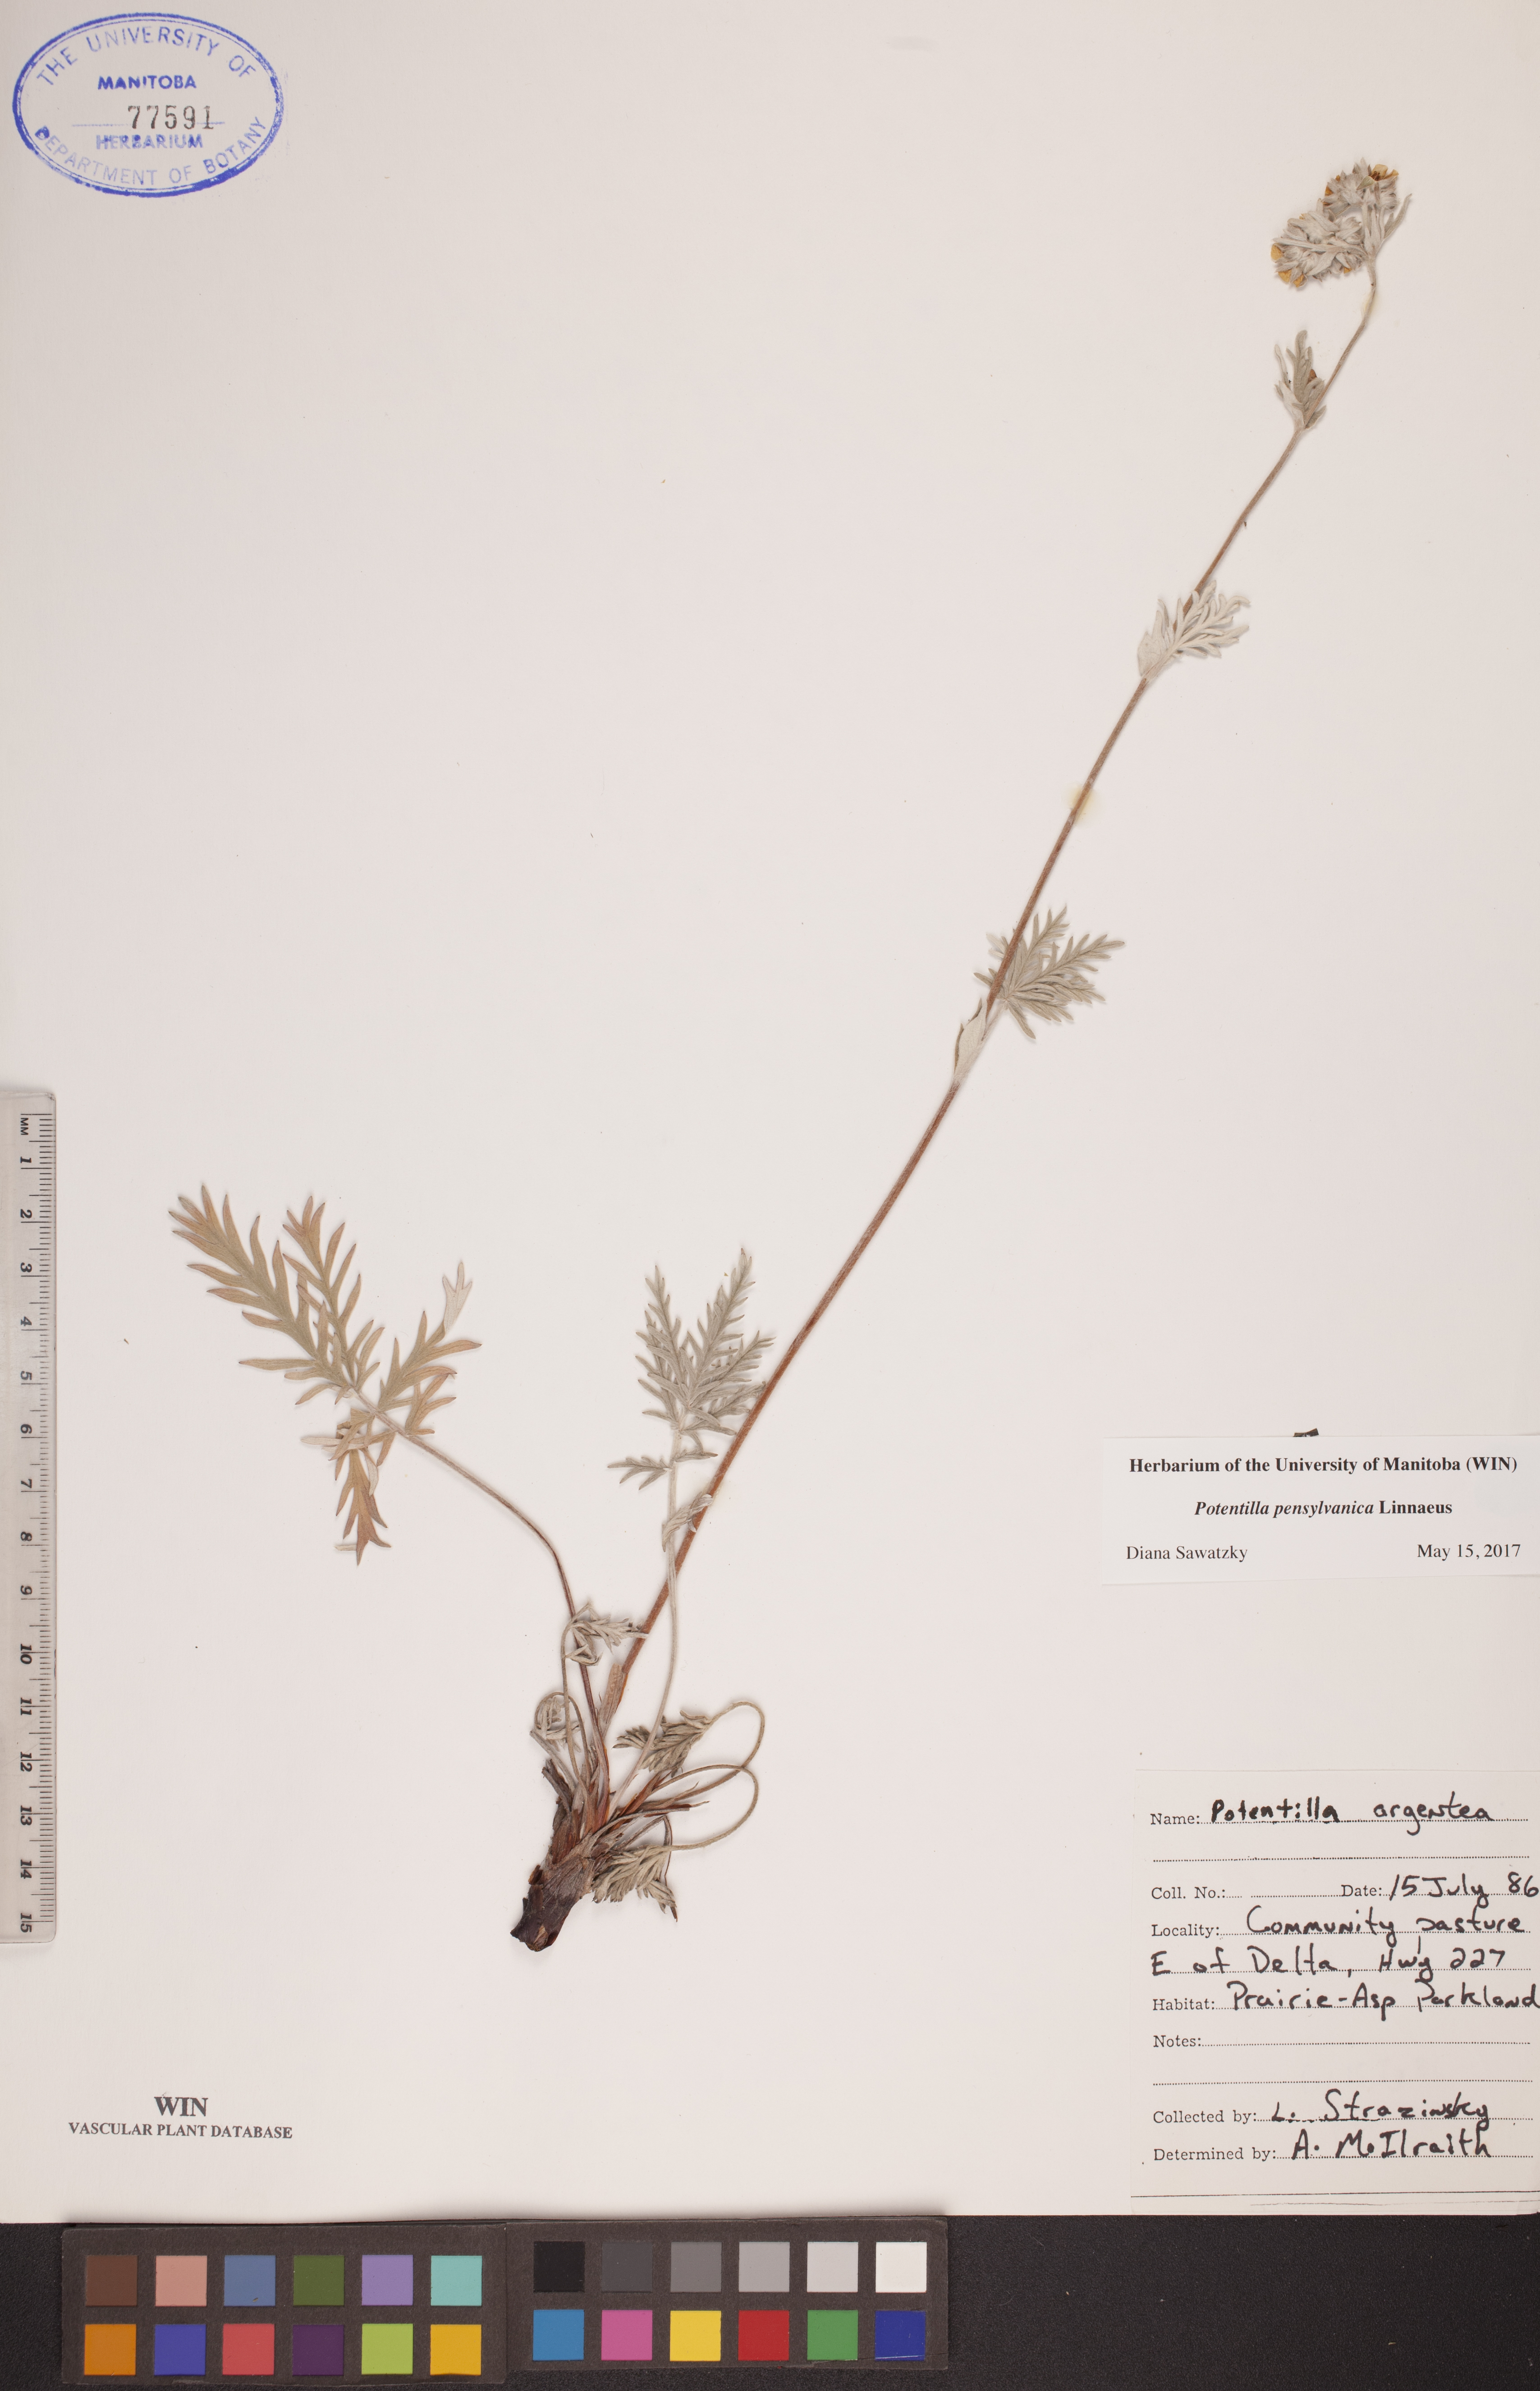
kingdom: Plantae
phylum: Tracheophyta
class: Magnoliopsida
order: Rosales
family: Rosaceae
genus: Potentilla
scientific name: Potentilla pensylvanica
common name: Pennsylvania cinquefoil
